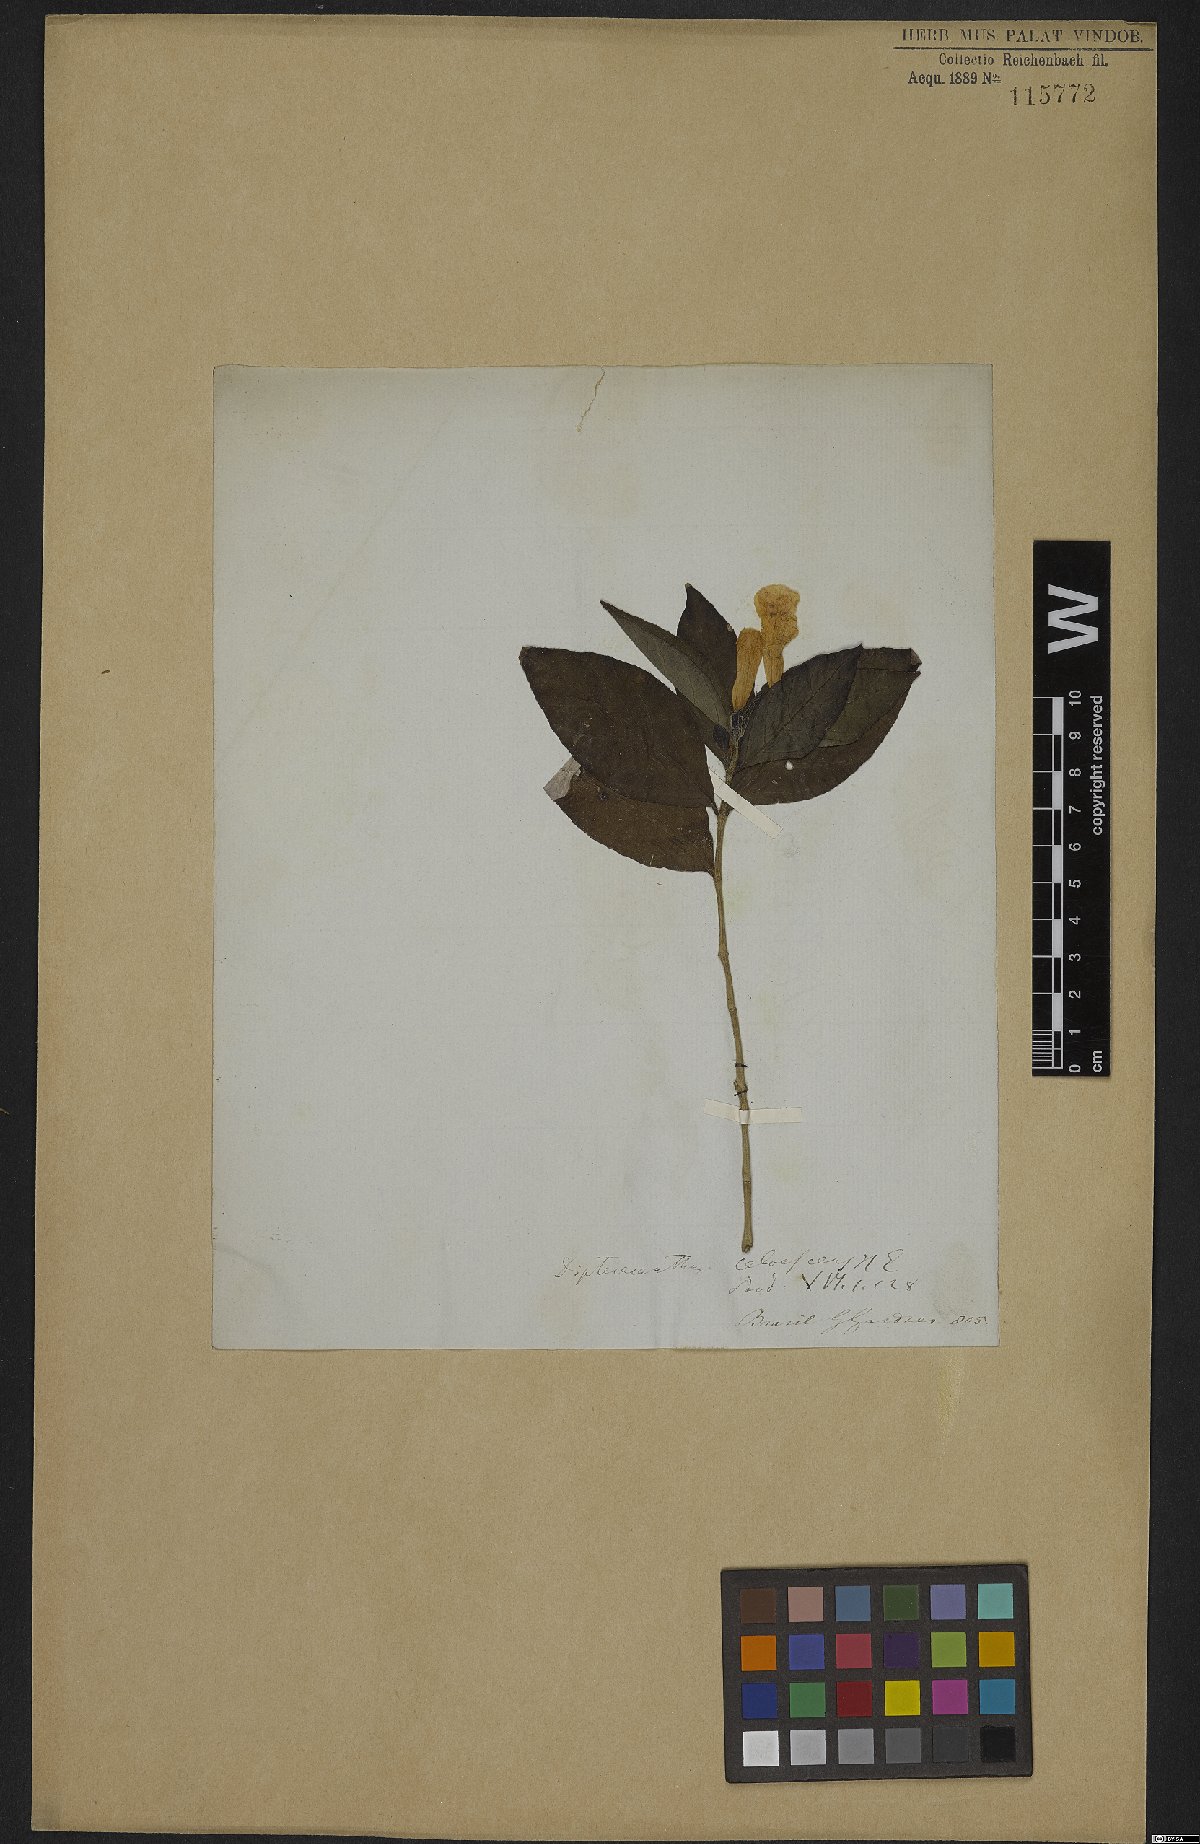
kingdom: Plantae
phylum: Tracheophyta
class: Magnoliopsida
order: Lamiales
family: Acanthaceae
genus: Ruellia
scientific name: Ruellia solitaria
